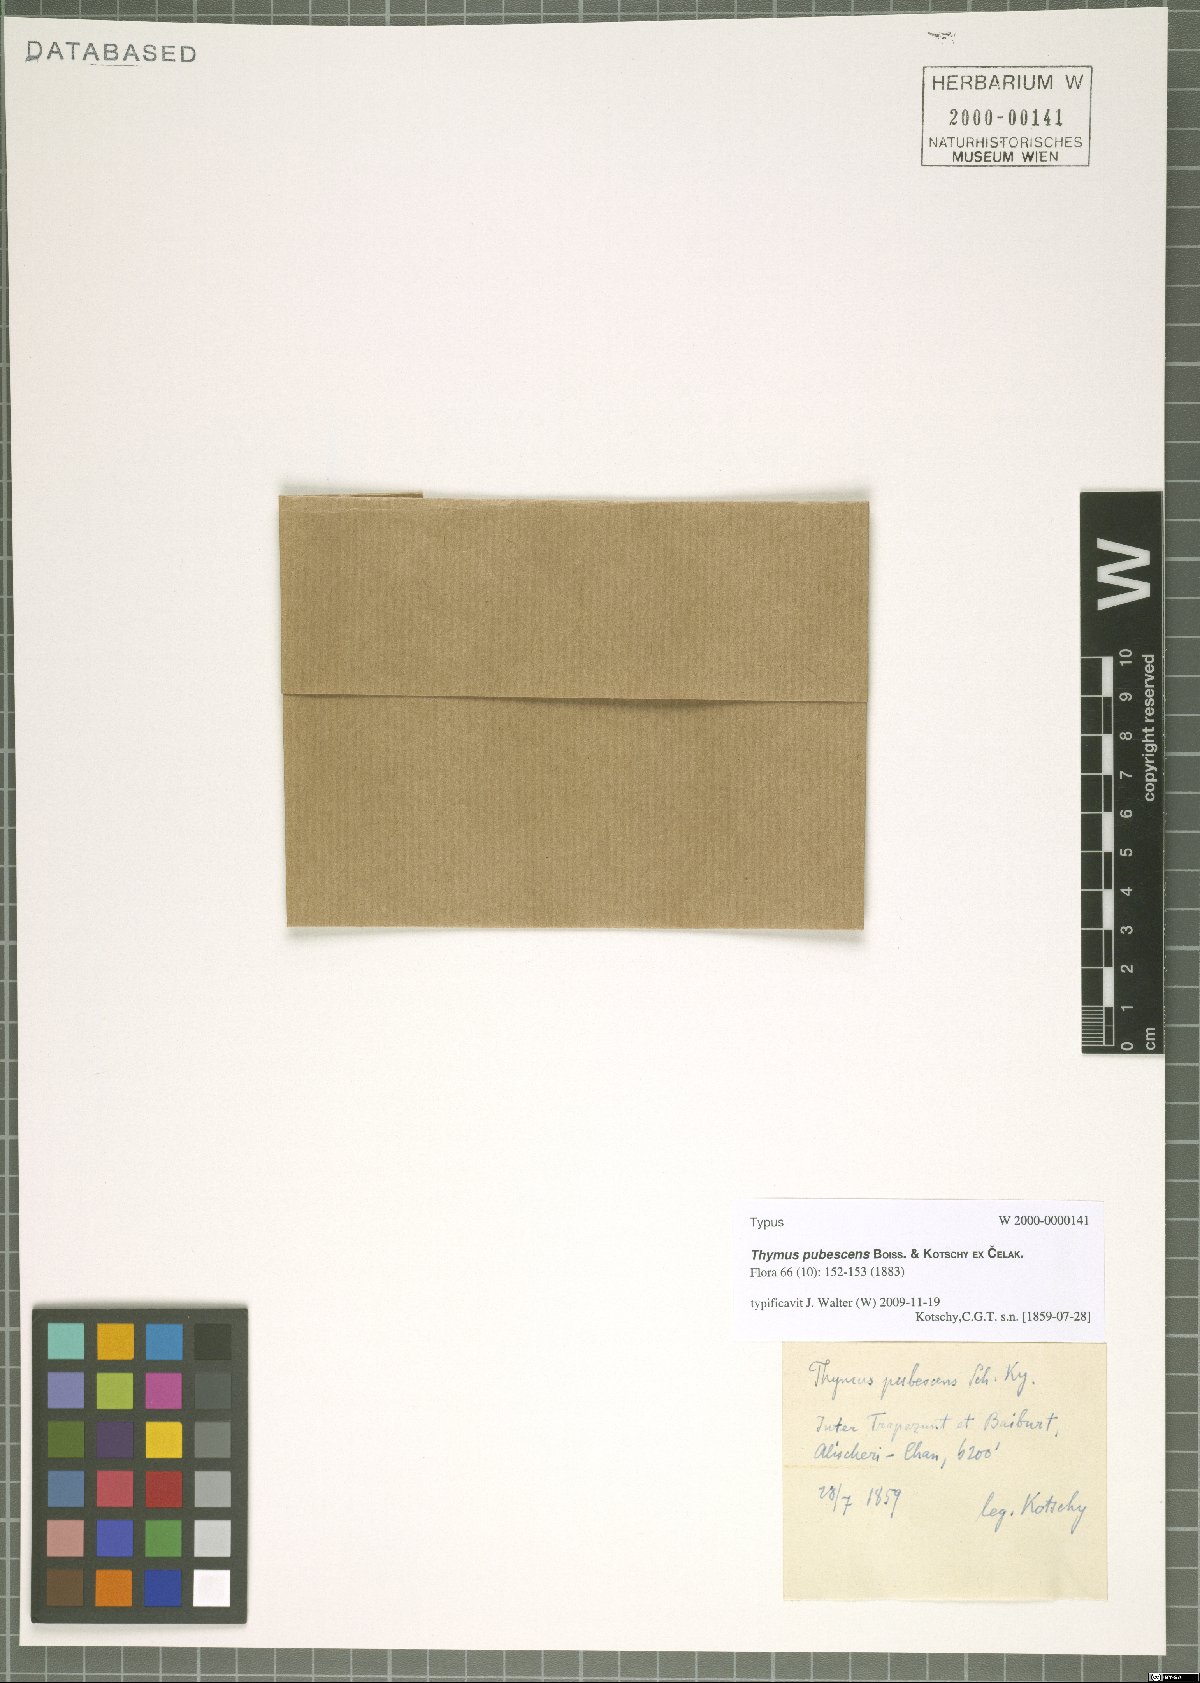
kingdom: Plantae
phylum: Tracheophyta
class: Magnoliopsida
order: Lamiales
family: Lamiaceae
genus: Thymus
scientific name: Thymus pubescens
